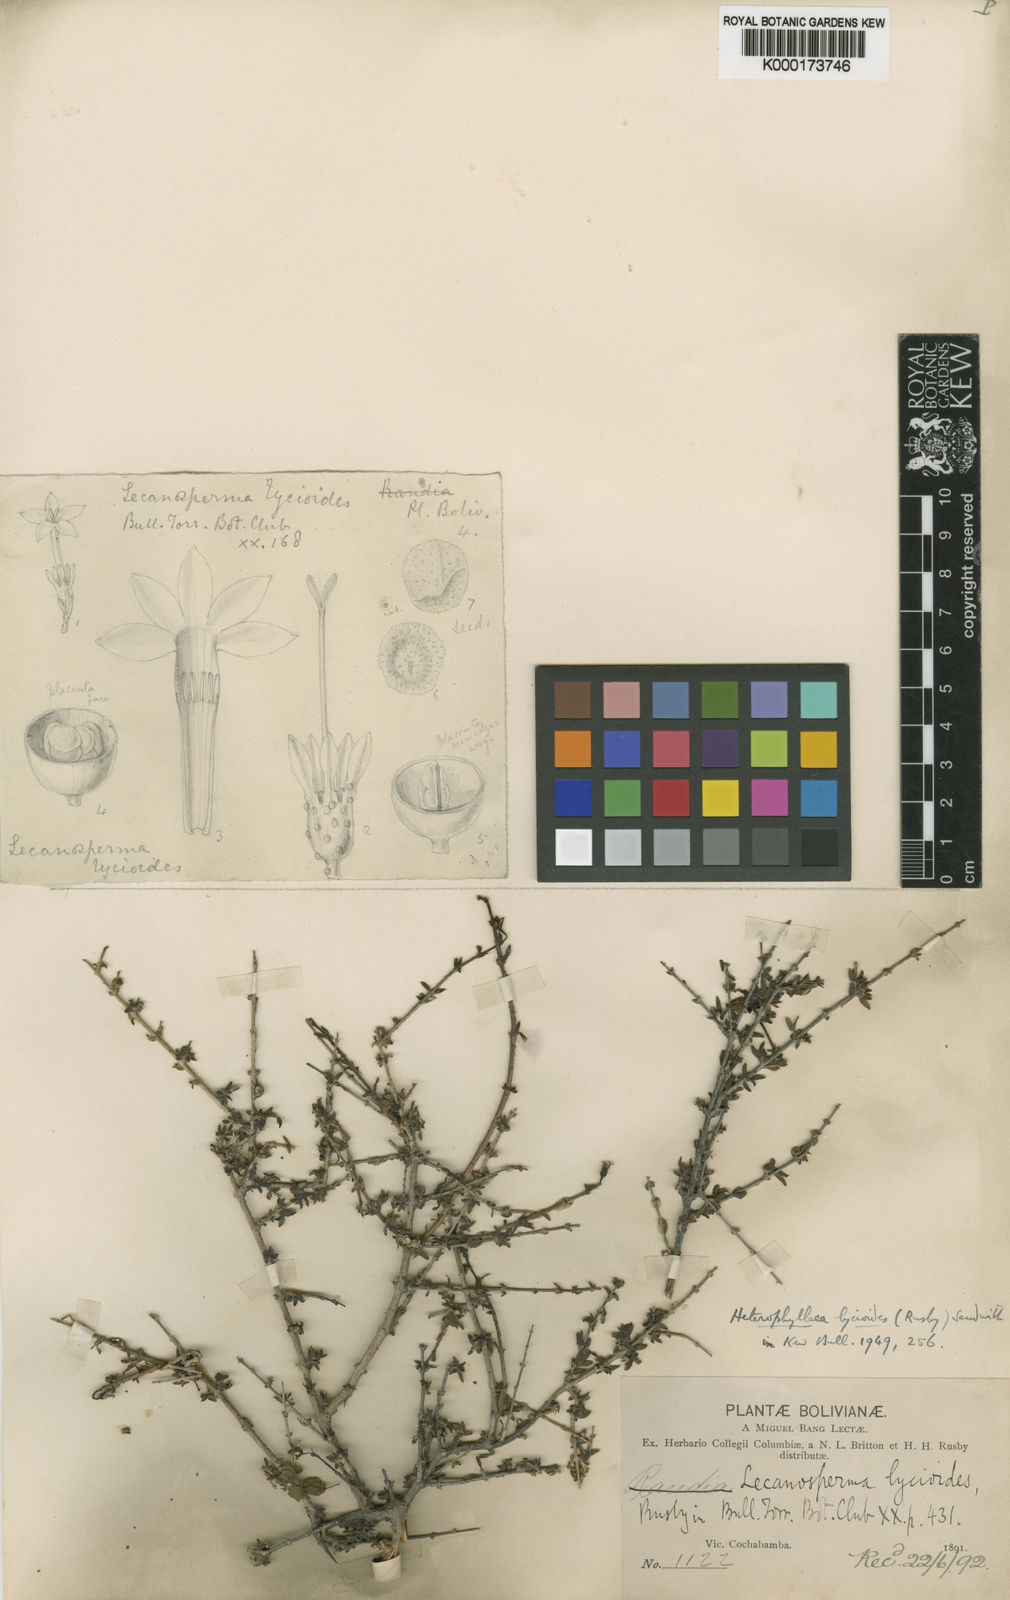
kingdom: Plantae
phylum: Tracheophyta
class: Magnoliopsida
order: Gentianales
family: Rubiaceae
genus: Heterophyllaea
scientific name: Heterophyllaea lycioides
